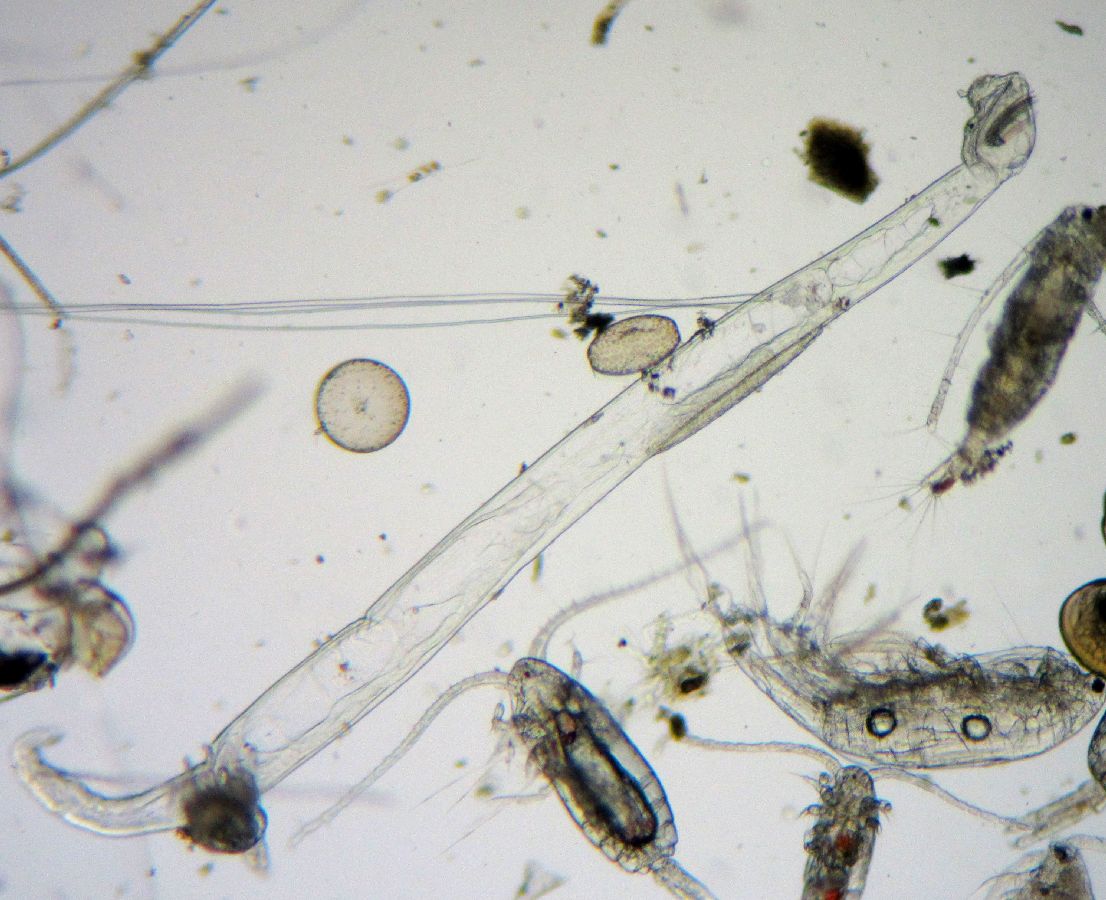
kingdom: Animalia
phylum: Chaetognatha
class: Sagittoidea
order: Aphragmophora
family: Sagittidae
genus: Parasagitta
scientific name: Parasagitta elegans
